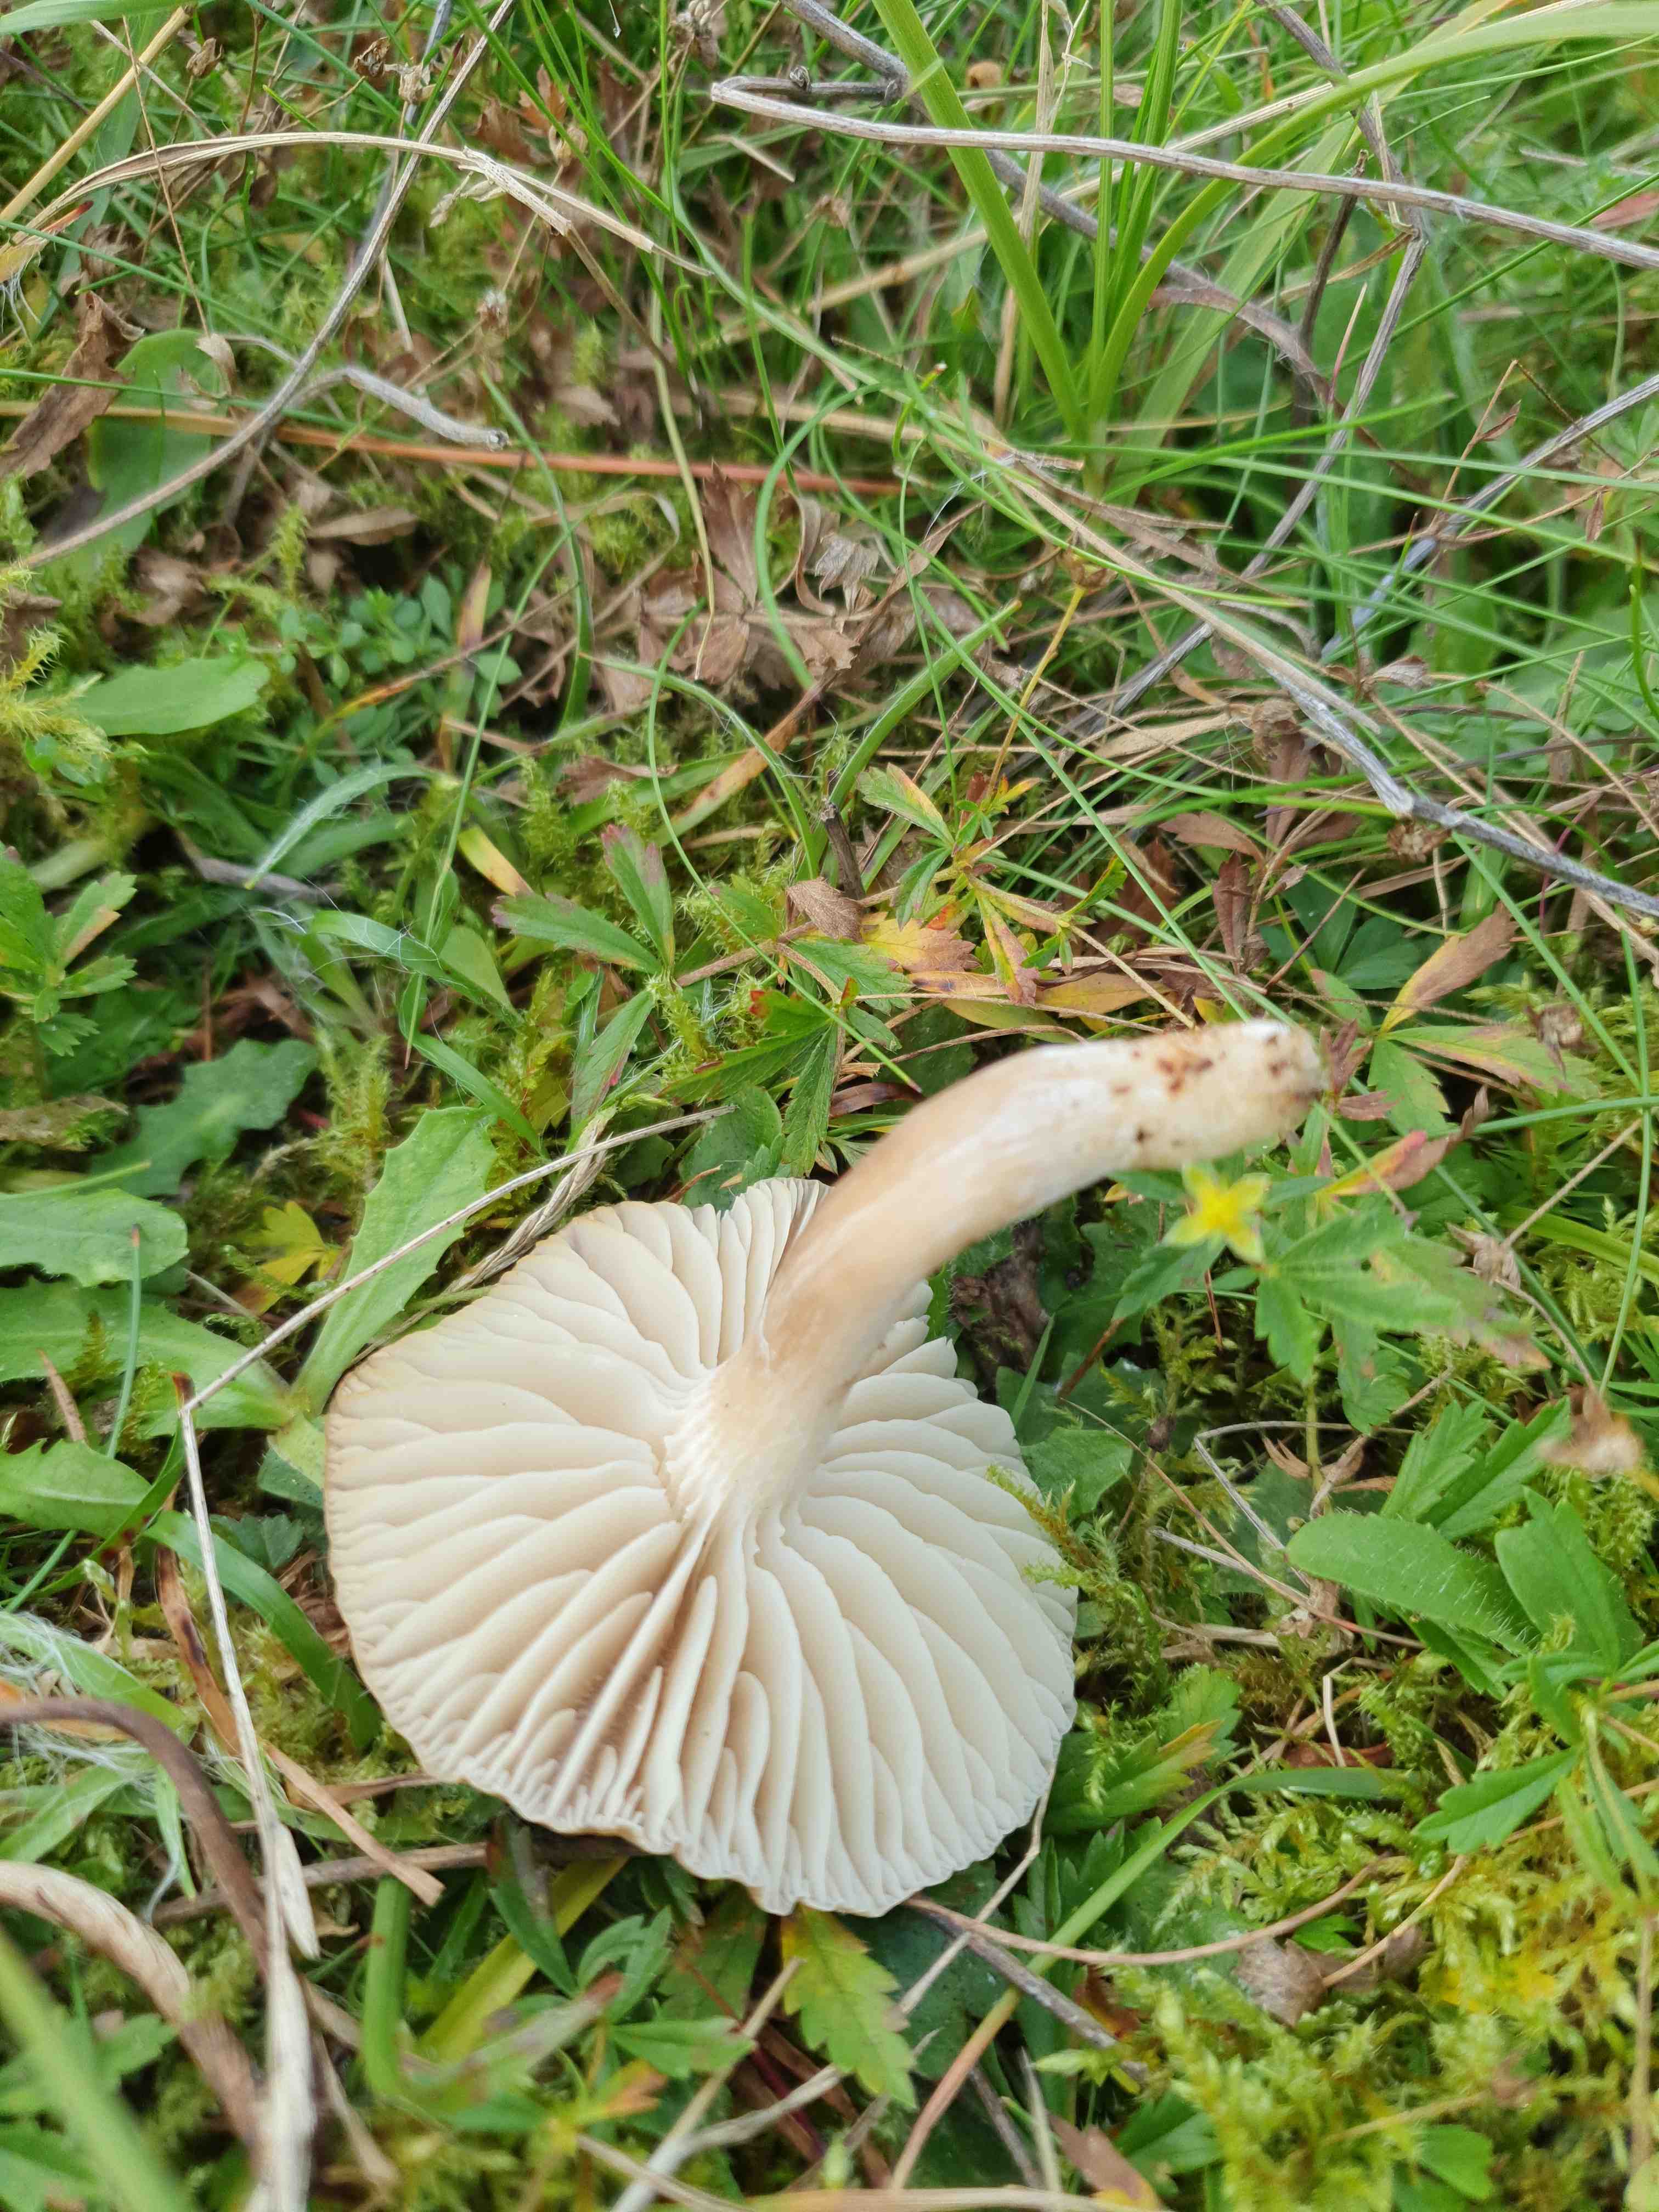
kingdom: Fungi
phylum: Basidiomycota
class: Agaricomycetes
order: Agaricales
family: Hygrophoraceae
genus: Neohygrocybe
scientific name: Neohygrocybe nitrata
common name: stinkende vokshat
